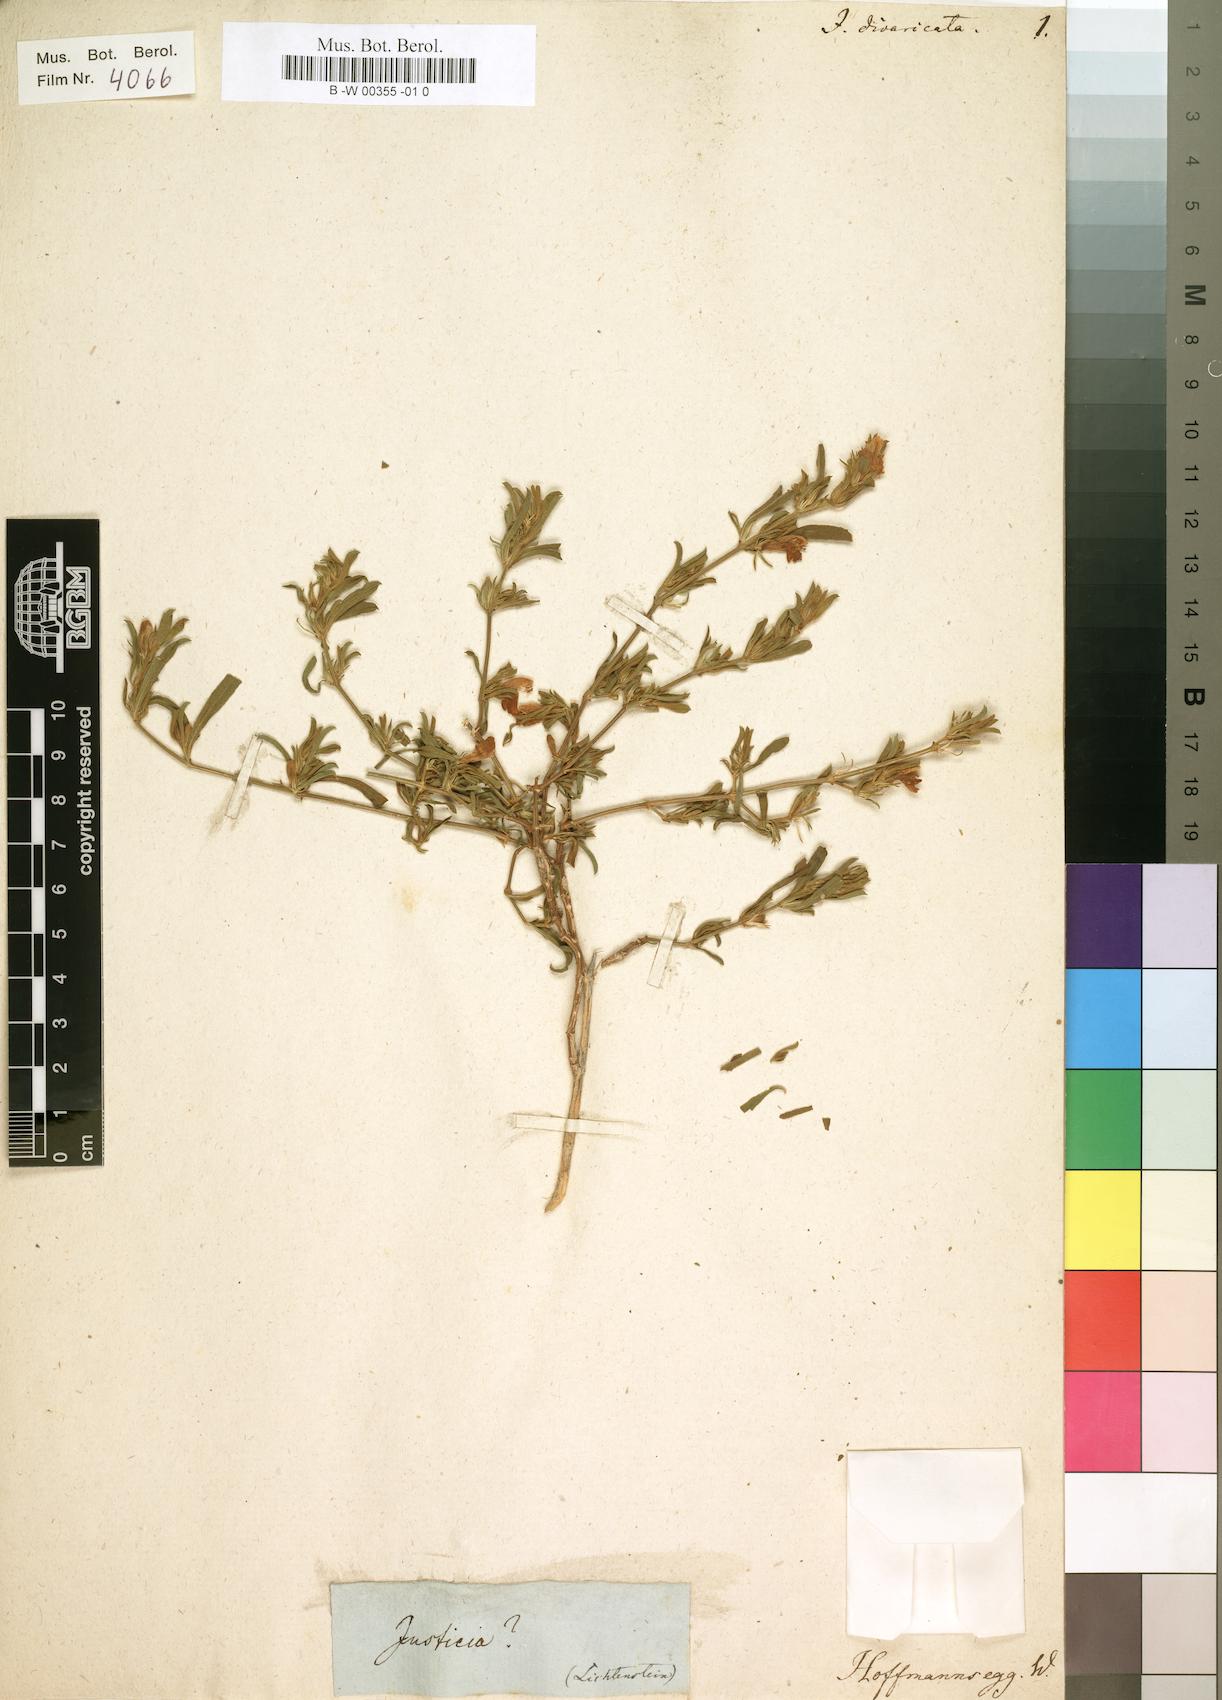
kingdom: Plantae
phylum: Tracheophyta
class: Magnoliopsida
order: Lamiales
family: Acanthaceae
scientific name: Acanthaceae
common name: Acanthaceae
